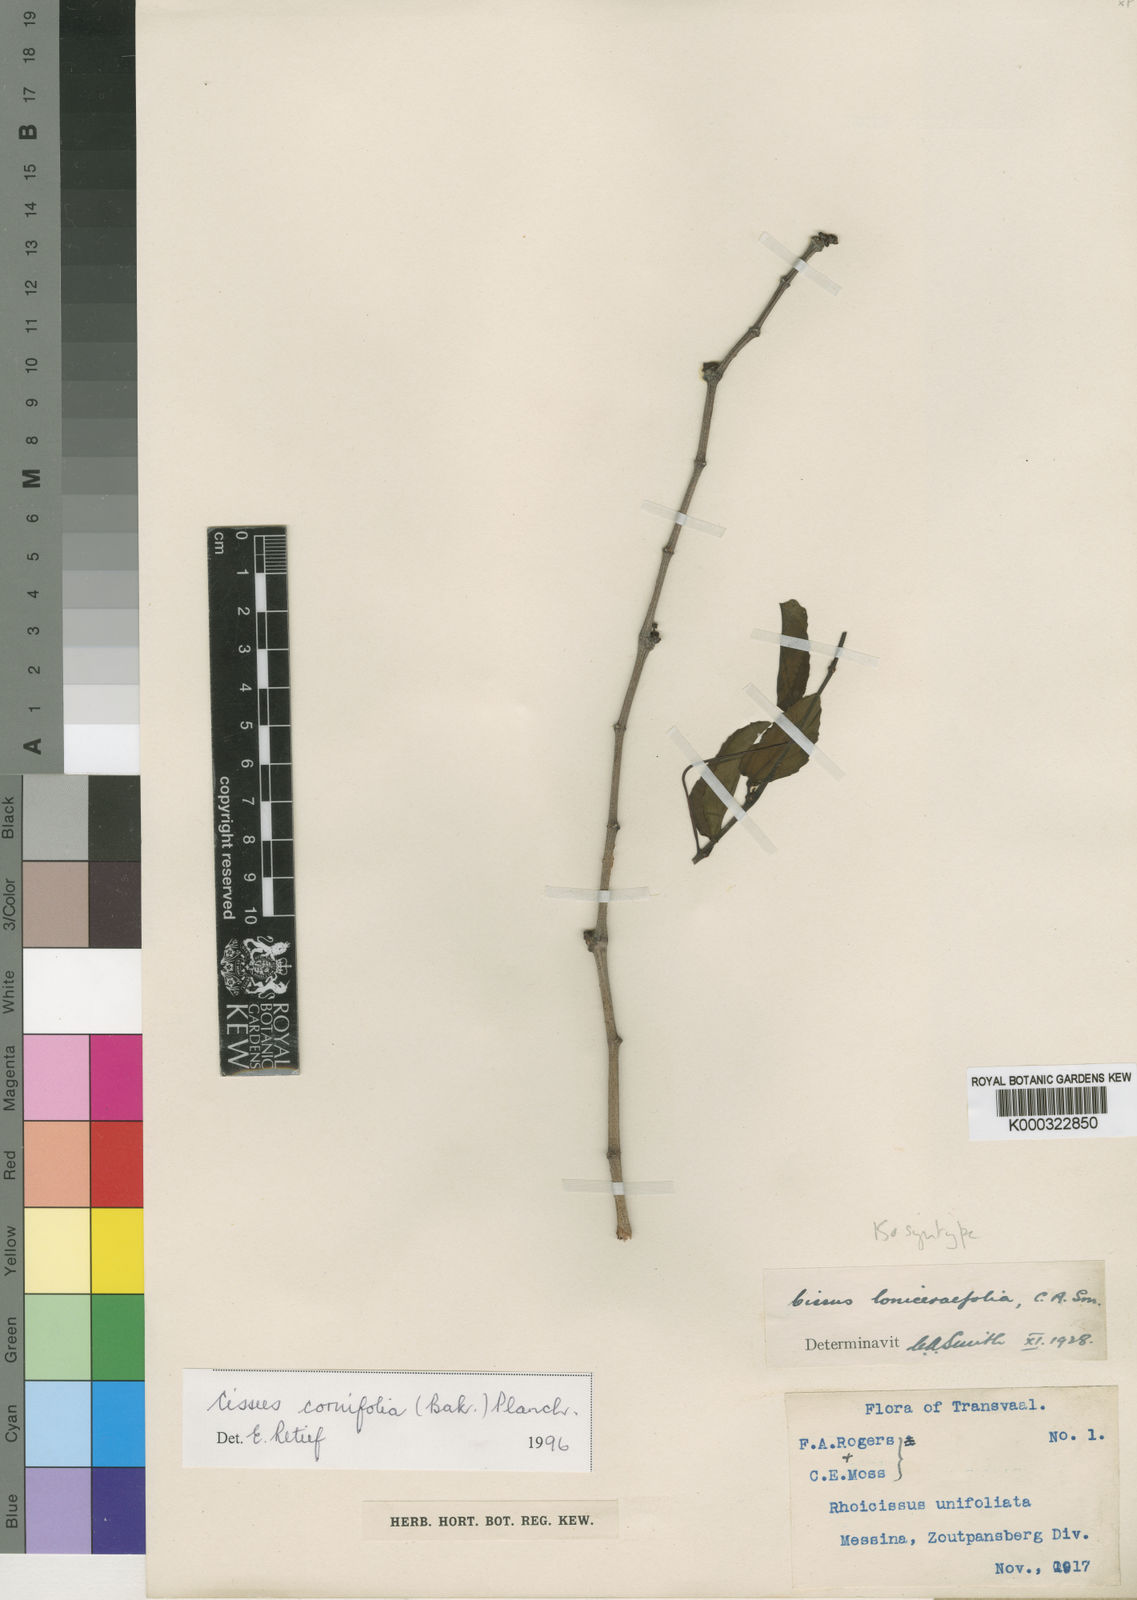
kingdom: Plantae
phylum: Tracheophyta
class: Magnoliopsida
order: Vitales
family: Vitaceae
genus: Cissus
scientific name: Cissus cornifolia
